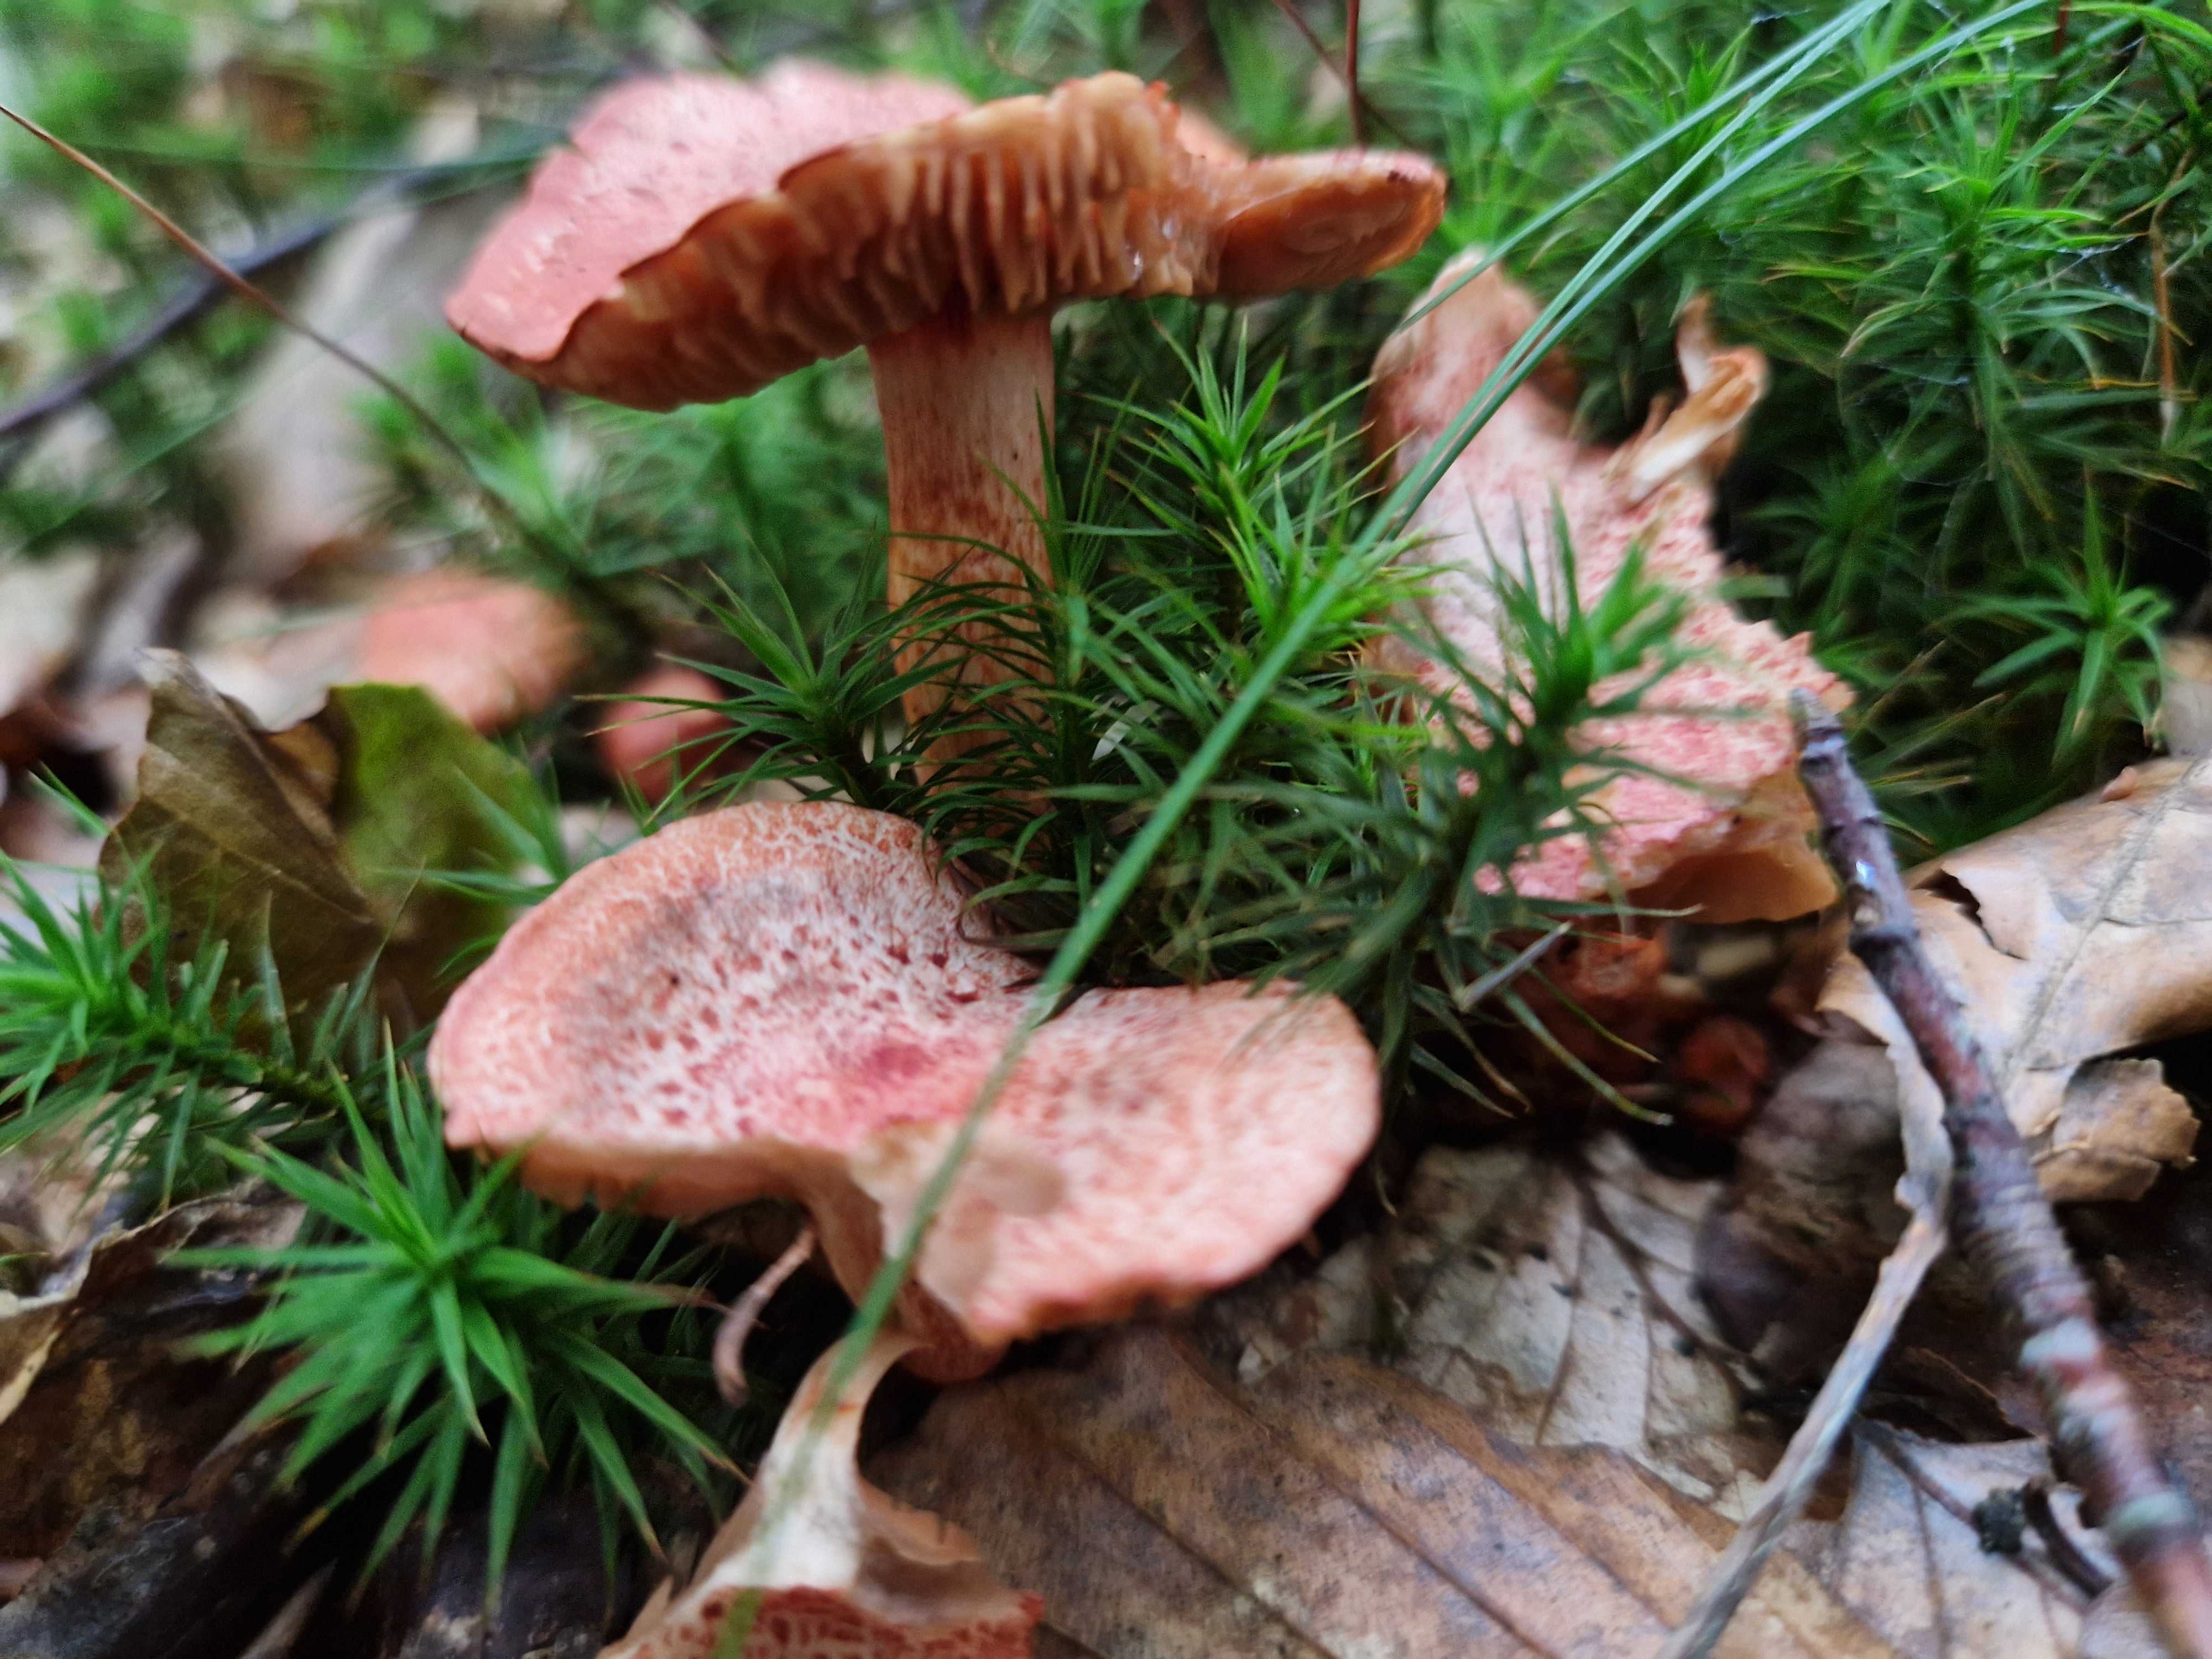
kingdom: Fungi
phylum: Basidiomycota
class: Agaricomycetes
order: Agaricales
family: Cortinariaceae
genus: Cortinarius
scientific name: Cortinarius bolaris
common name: cinnoberskællet slørhat
